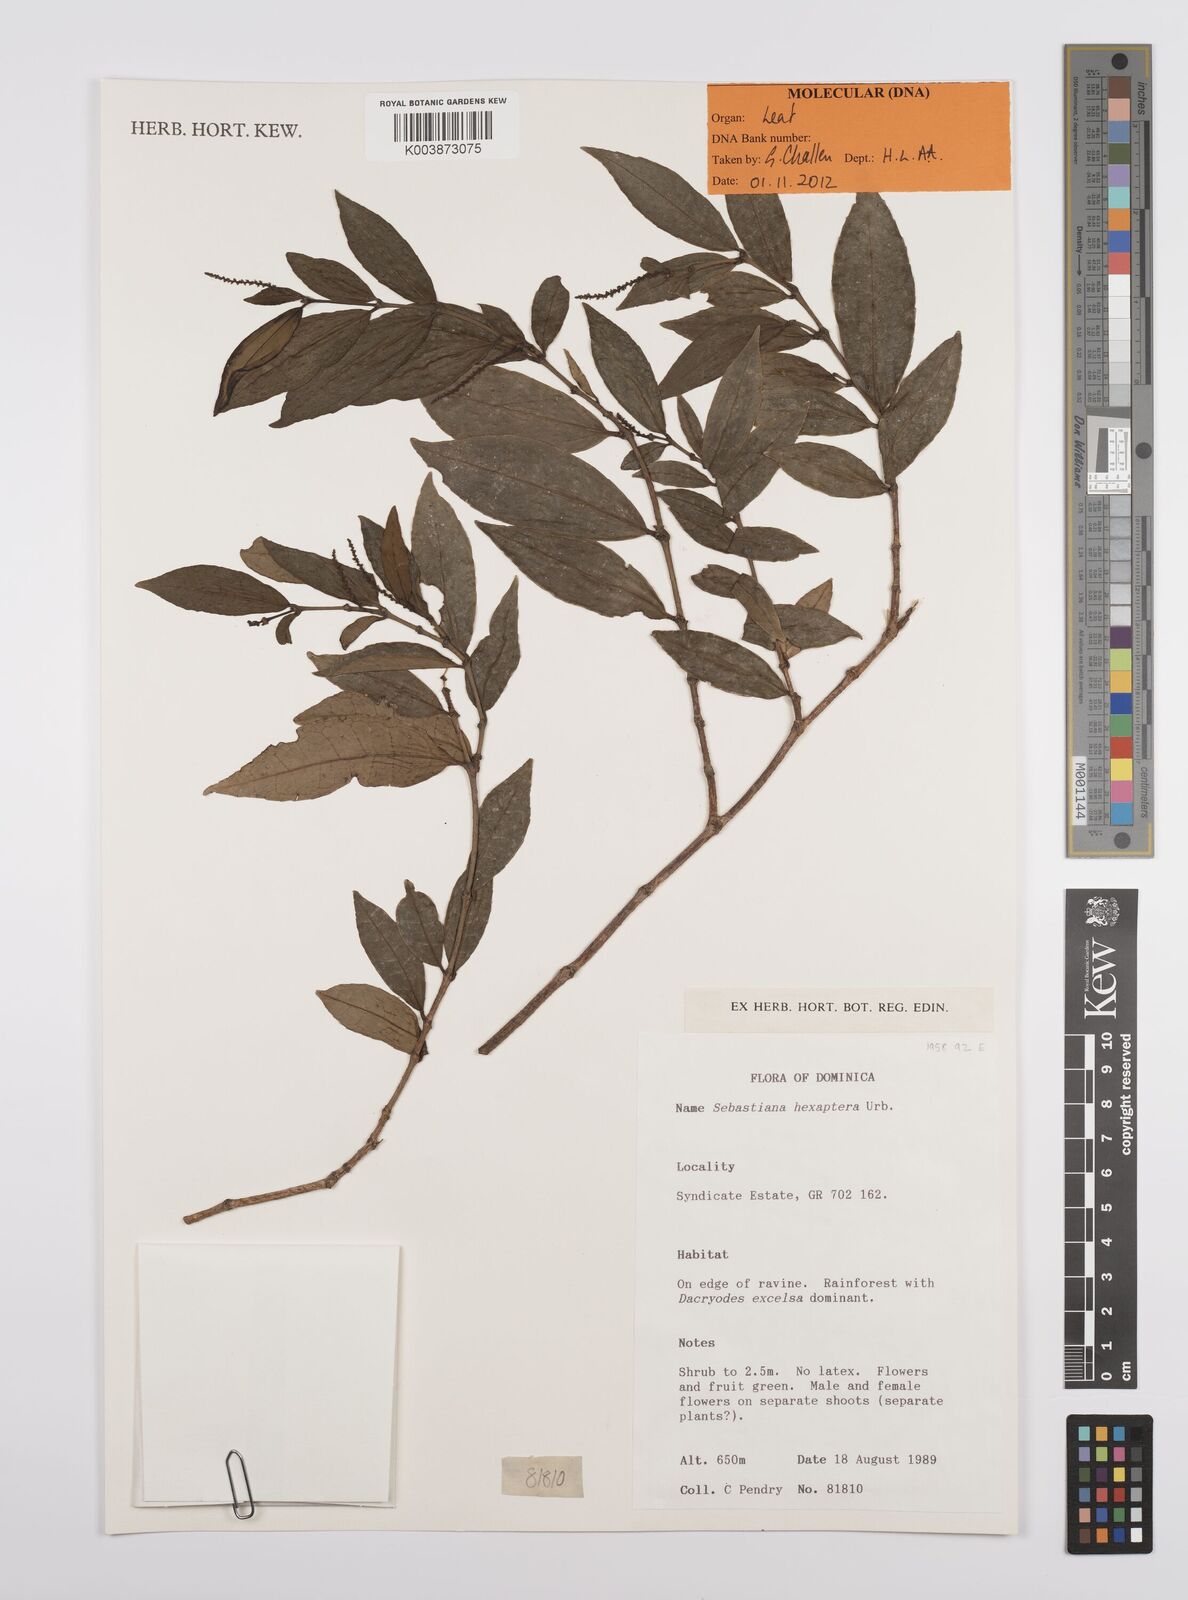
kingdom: Plantae
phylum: Tracheophyta
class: Magnoliopsida
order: Malpighiales
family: Euphorbiaceae
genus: Sebastiania
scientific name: Sebastiania hexaptera
